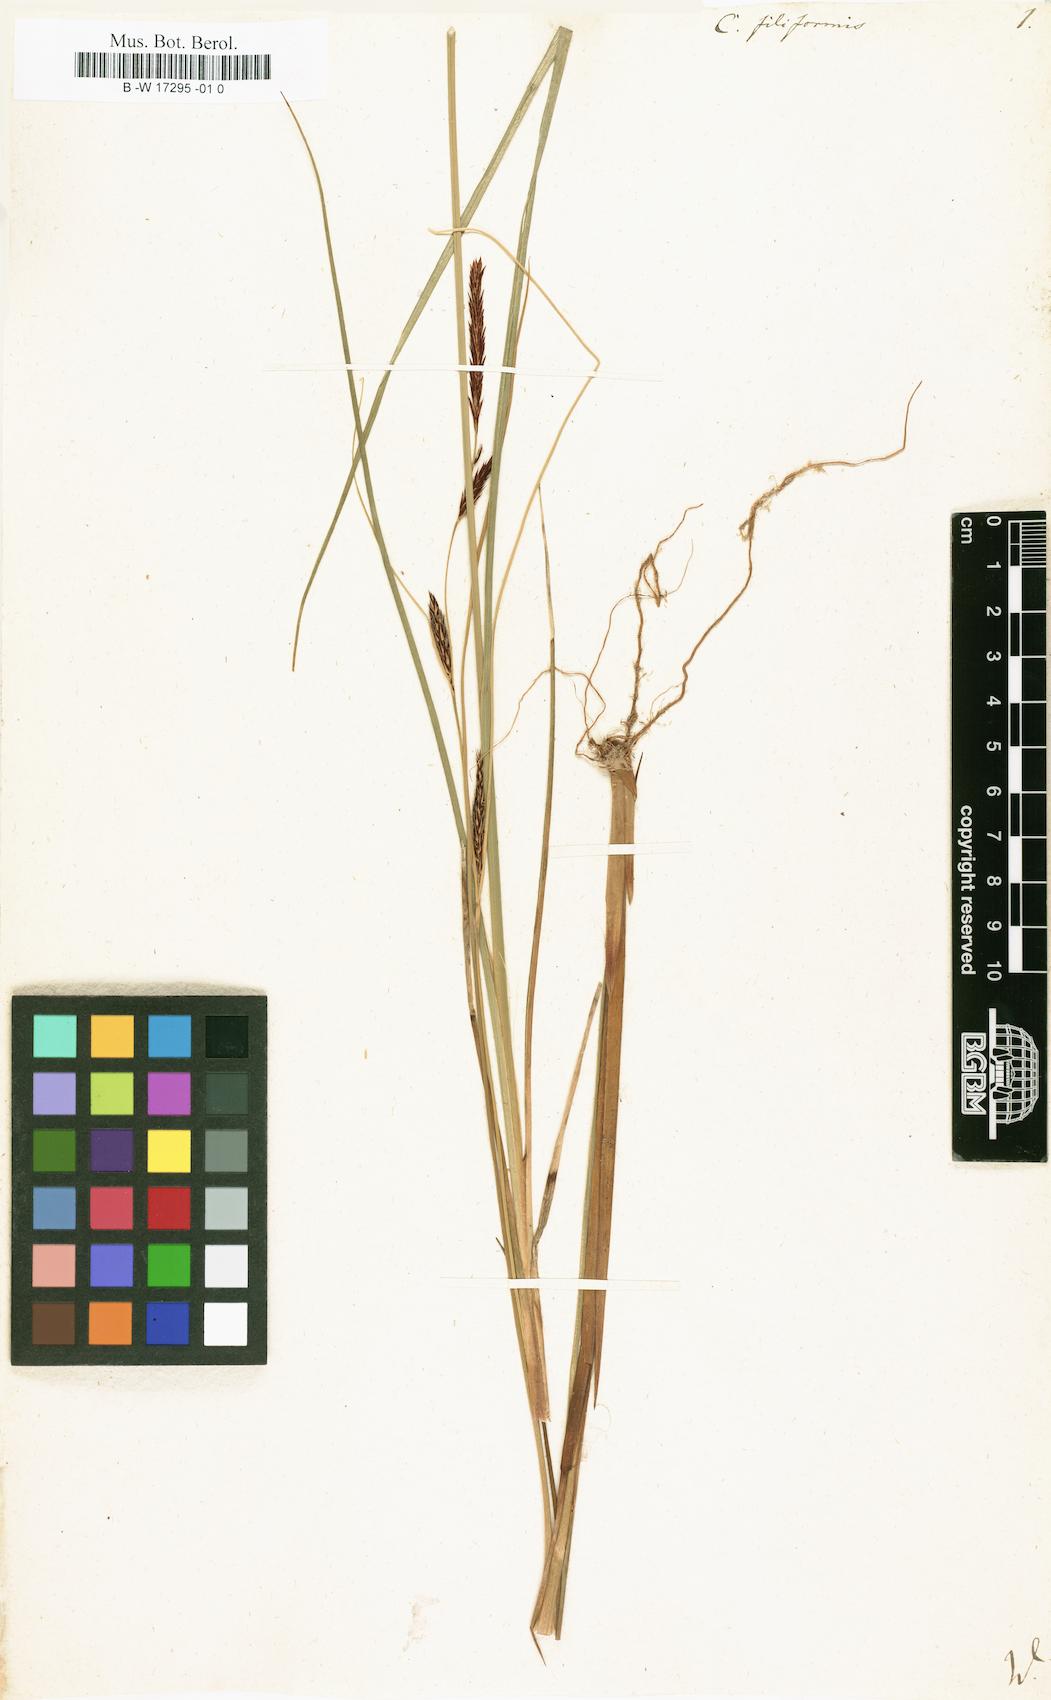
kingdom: Plantae
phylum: Tracheophyta
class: Liliopsida
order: Poales
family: Cyperaceae
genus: Carex
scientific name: Carex montana
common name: Soft-leaved sedge
